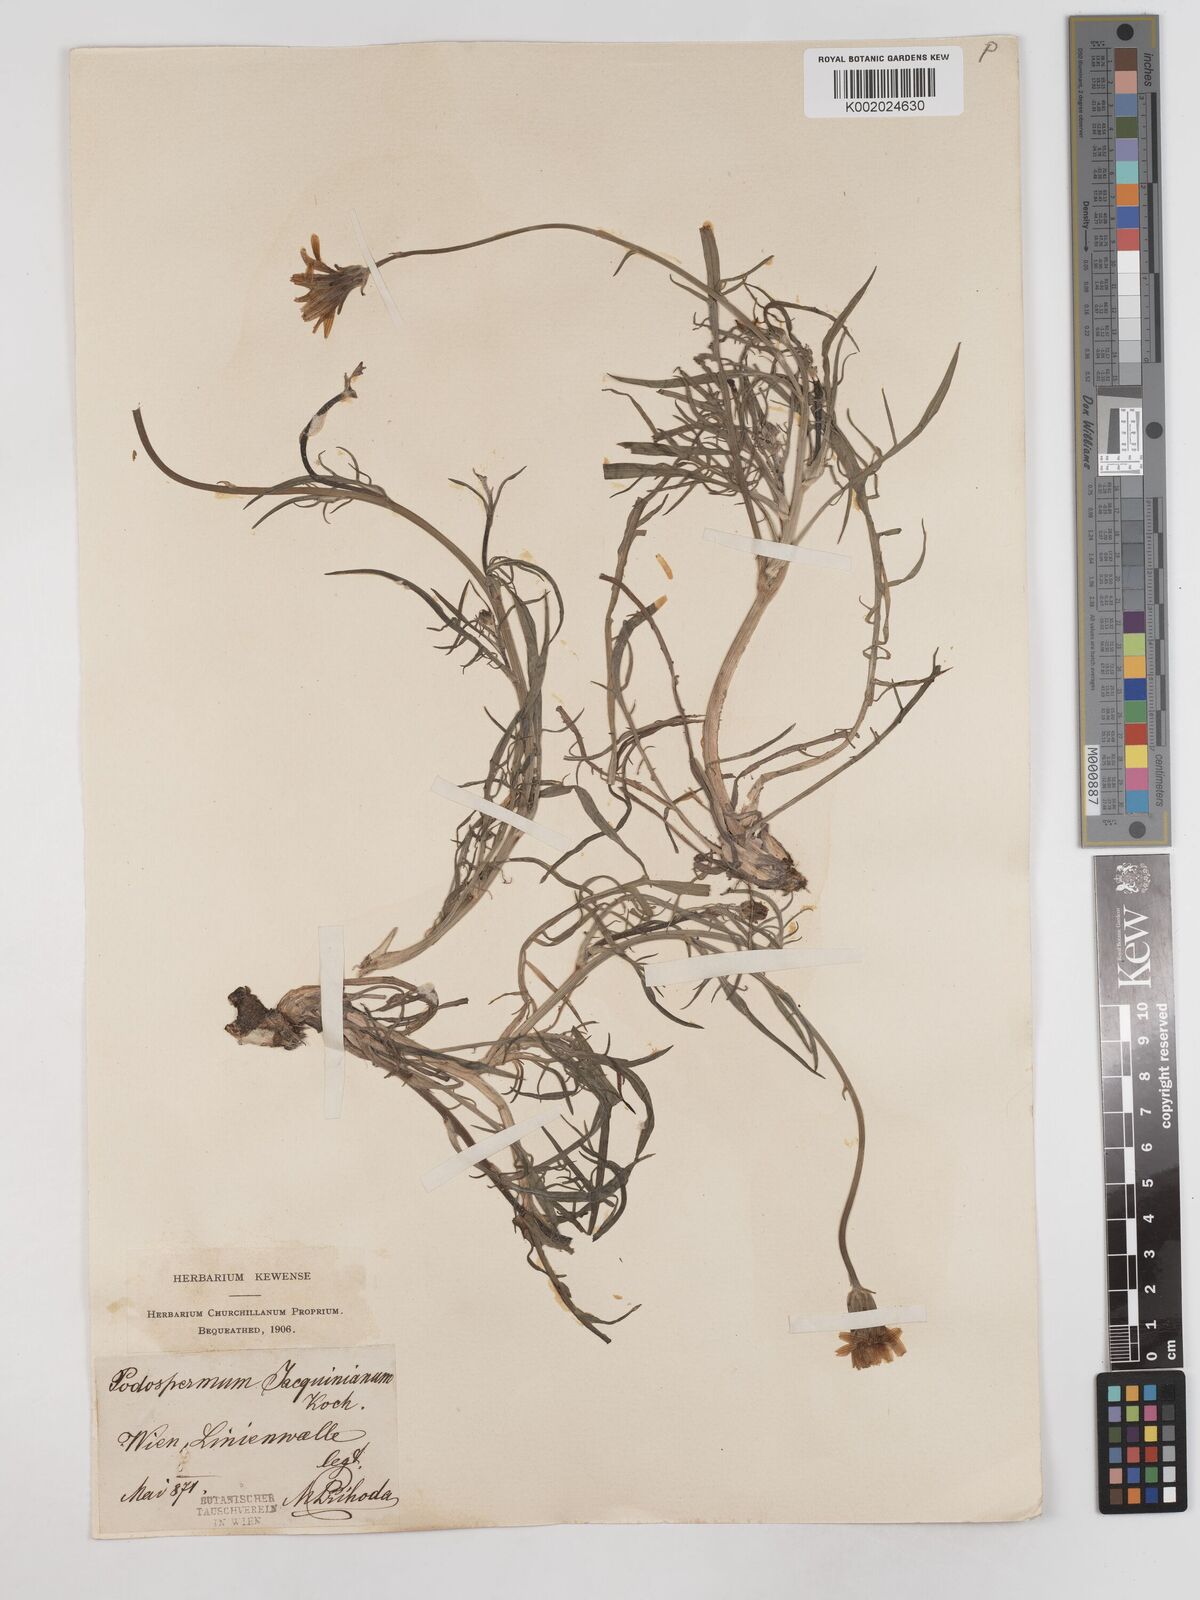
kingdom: Plantae
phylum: Tracheophyta
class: Magnoliopsida
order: Asterales
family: Asteraceae
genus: Scorzonera
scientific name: Scorzonera cana
